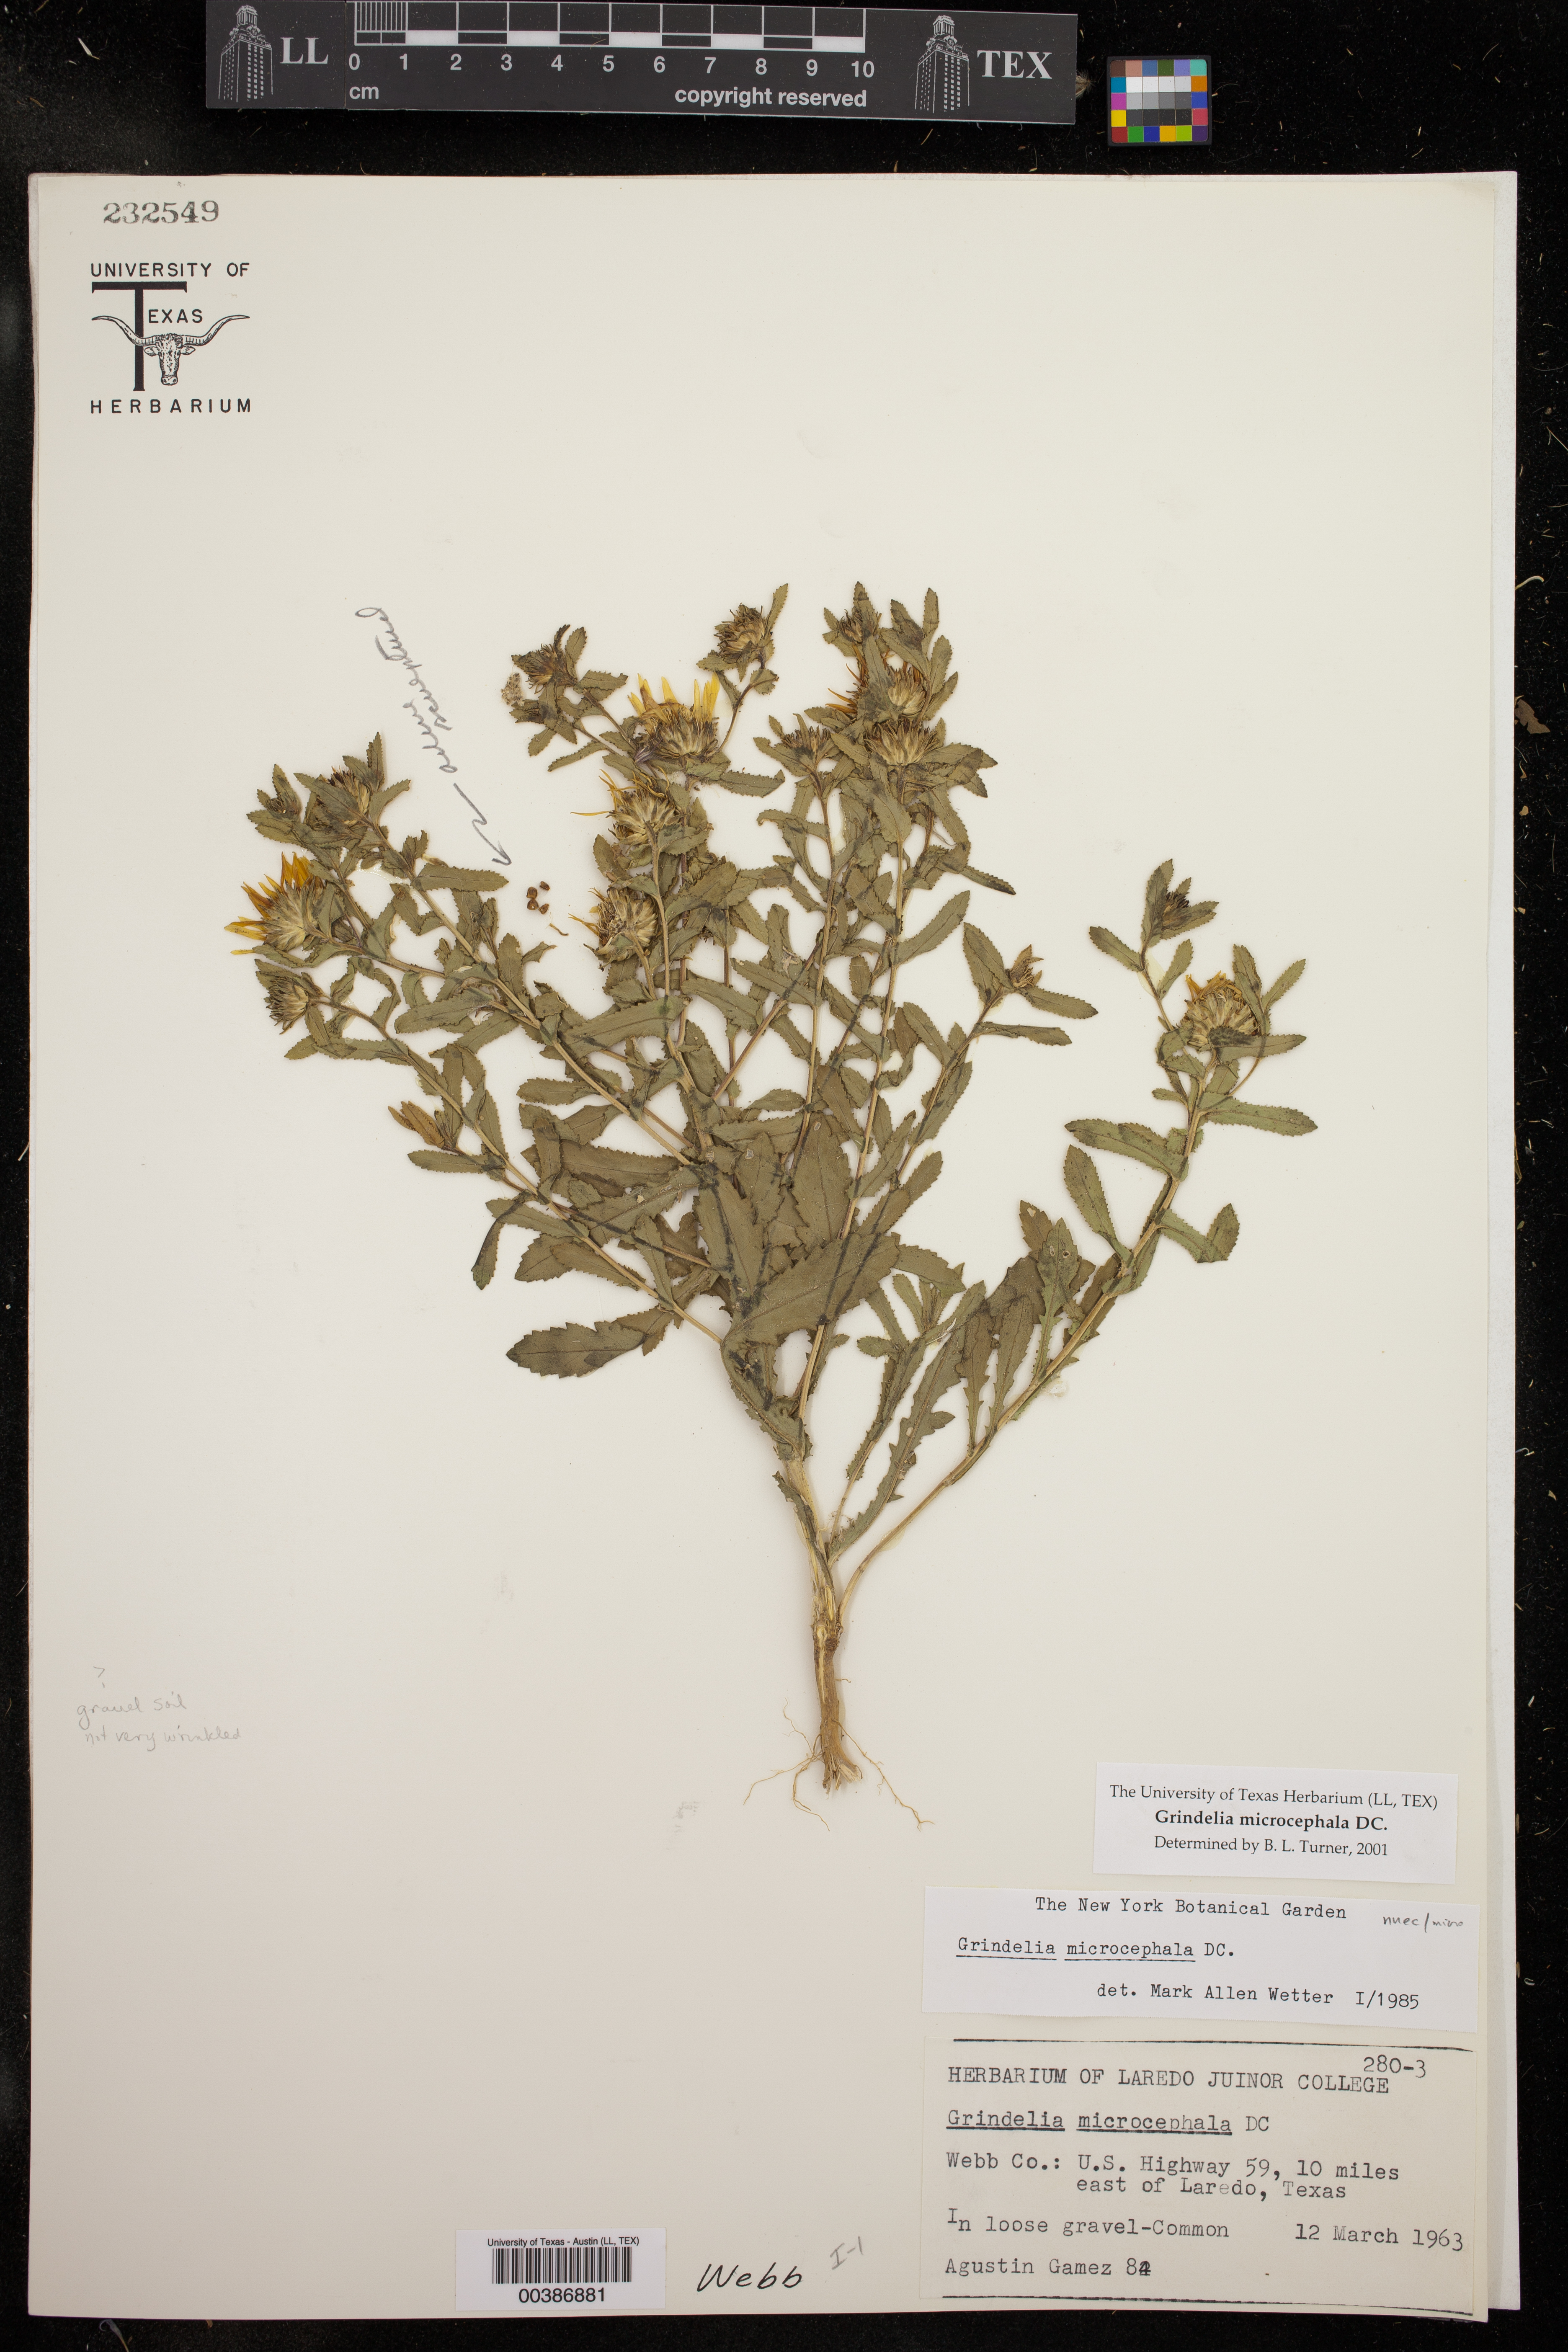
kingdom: Plantae
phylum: Tracheophyta
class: Magnoliopsida
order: Asterales
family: Asteraceae
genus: Grindelia
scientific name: Grindelia microcephala
